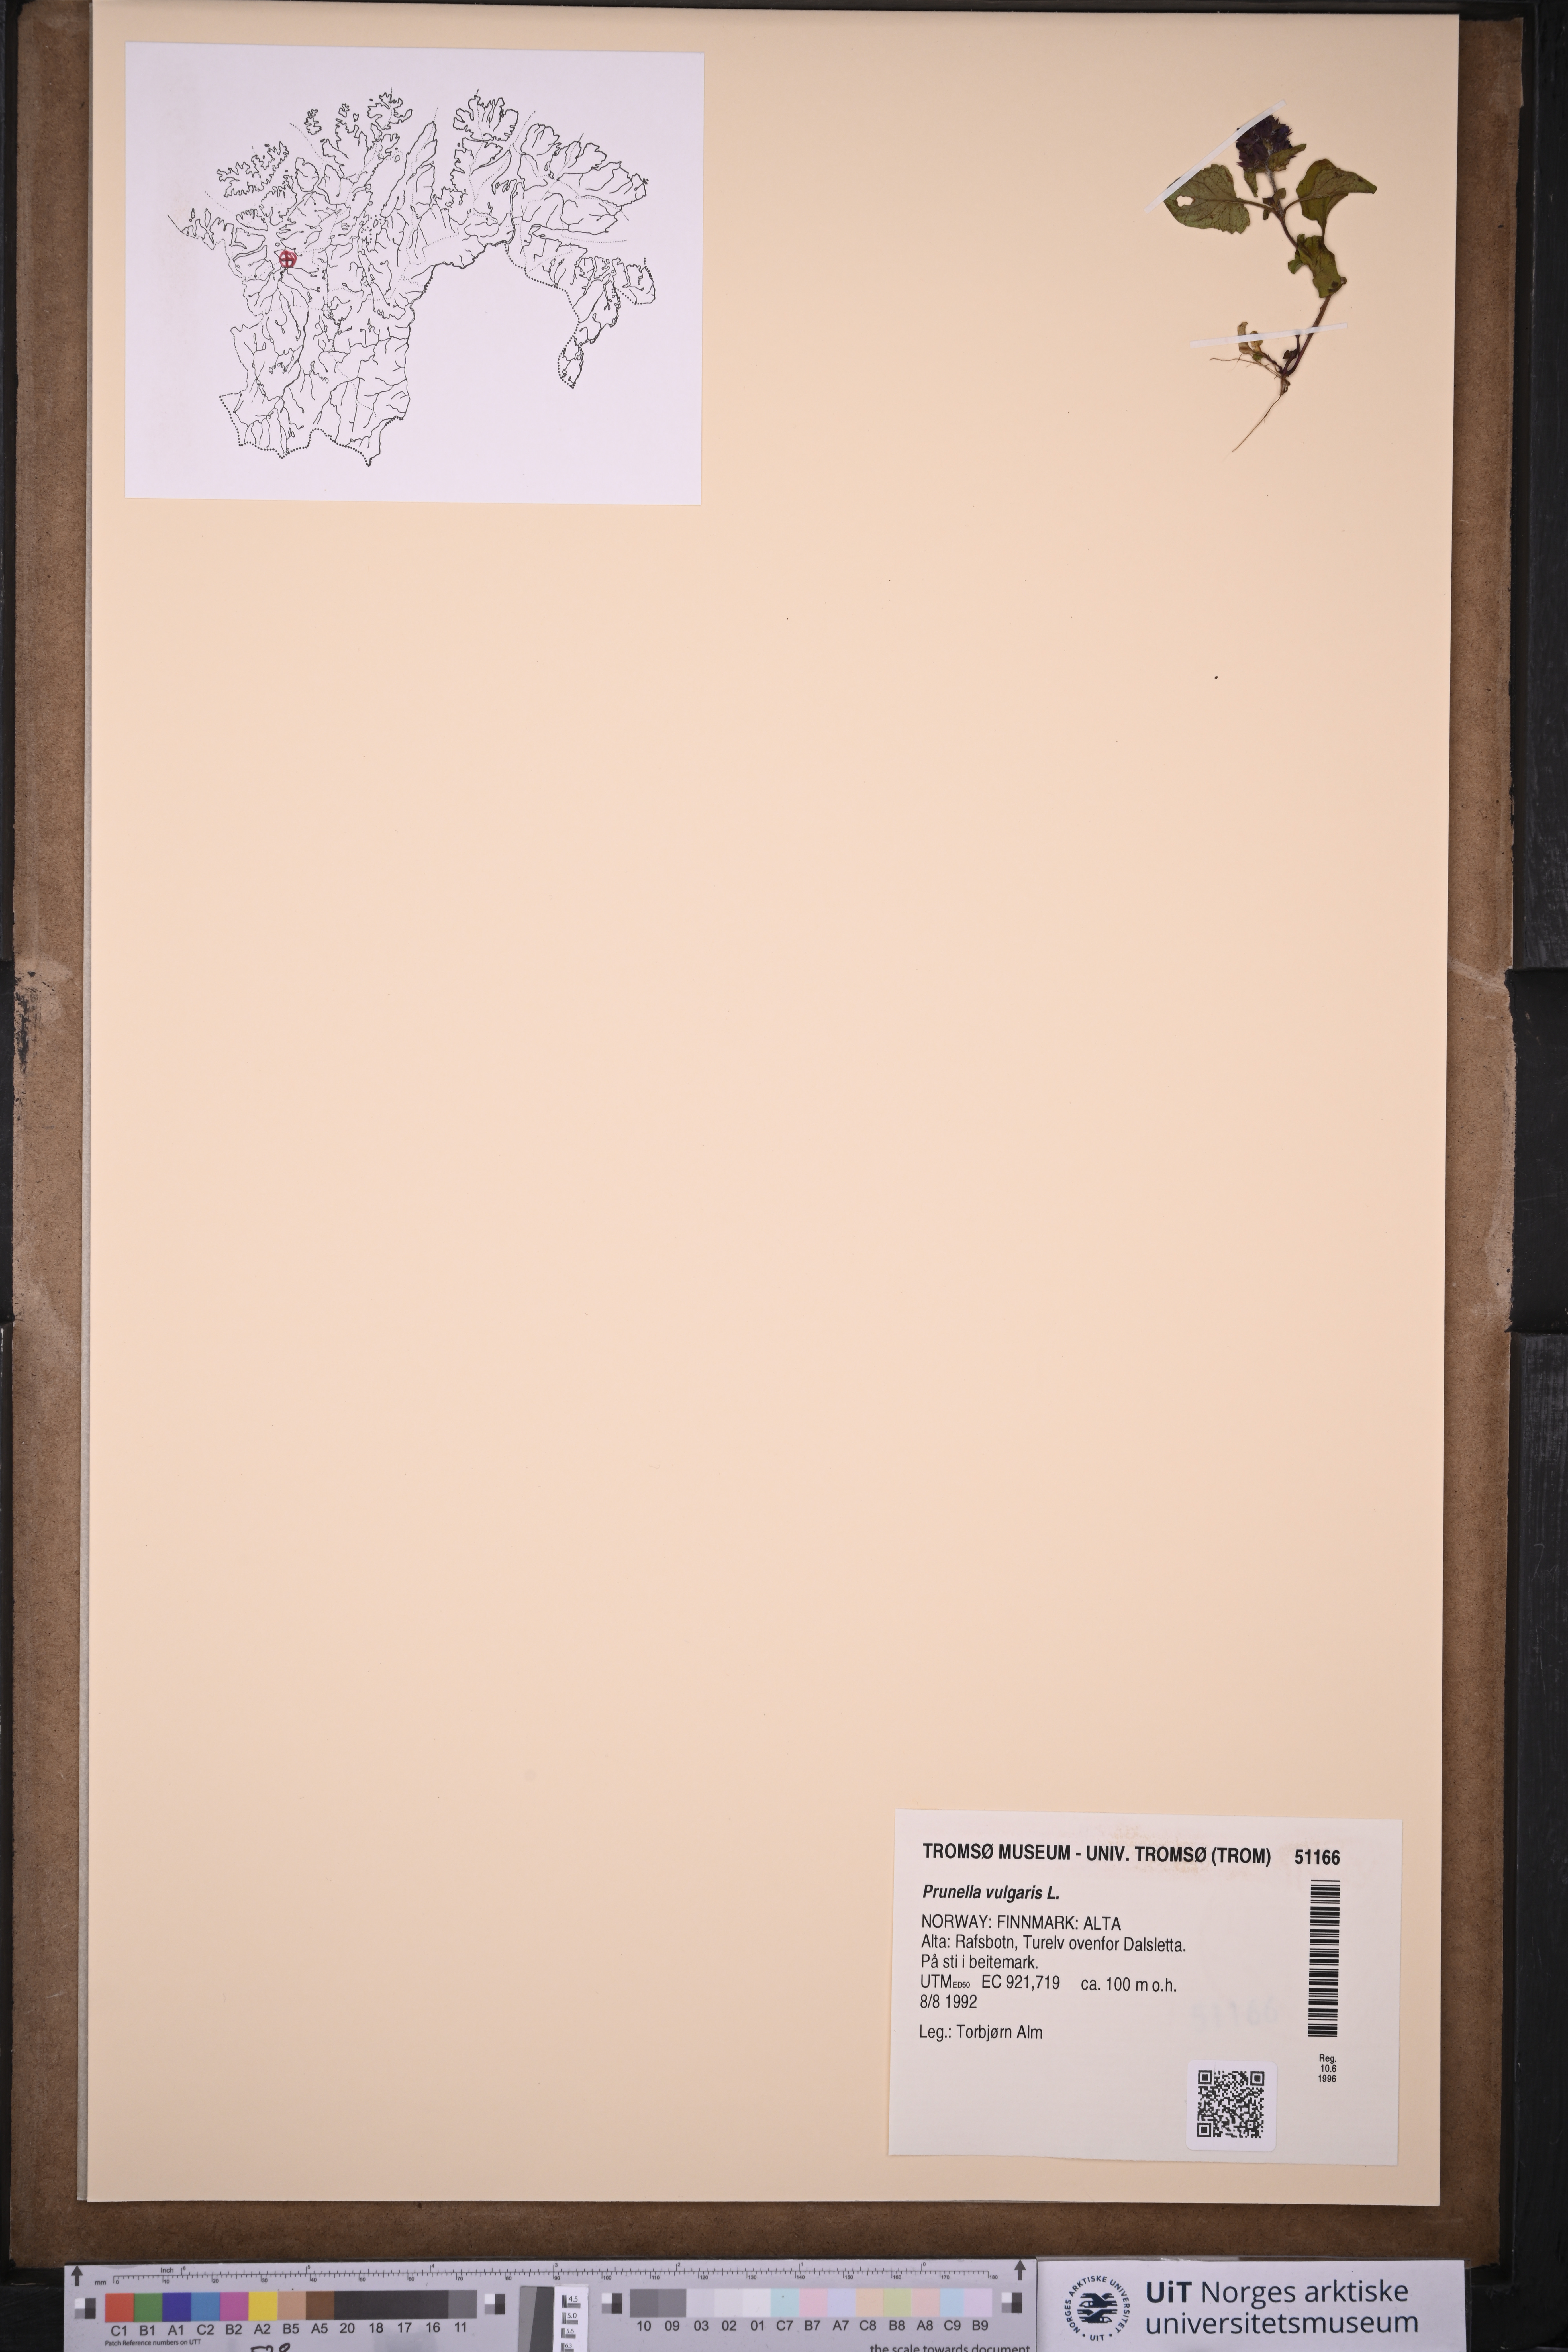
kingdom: Plantae
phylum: Tracheophyta
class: Magnoliopsida
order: Lamiales
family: Lamiaceae
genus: Prunella
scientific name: Prunella vulgaris
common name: Heal-all
